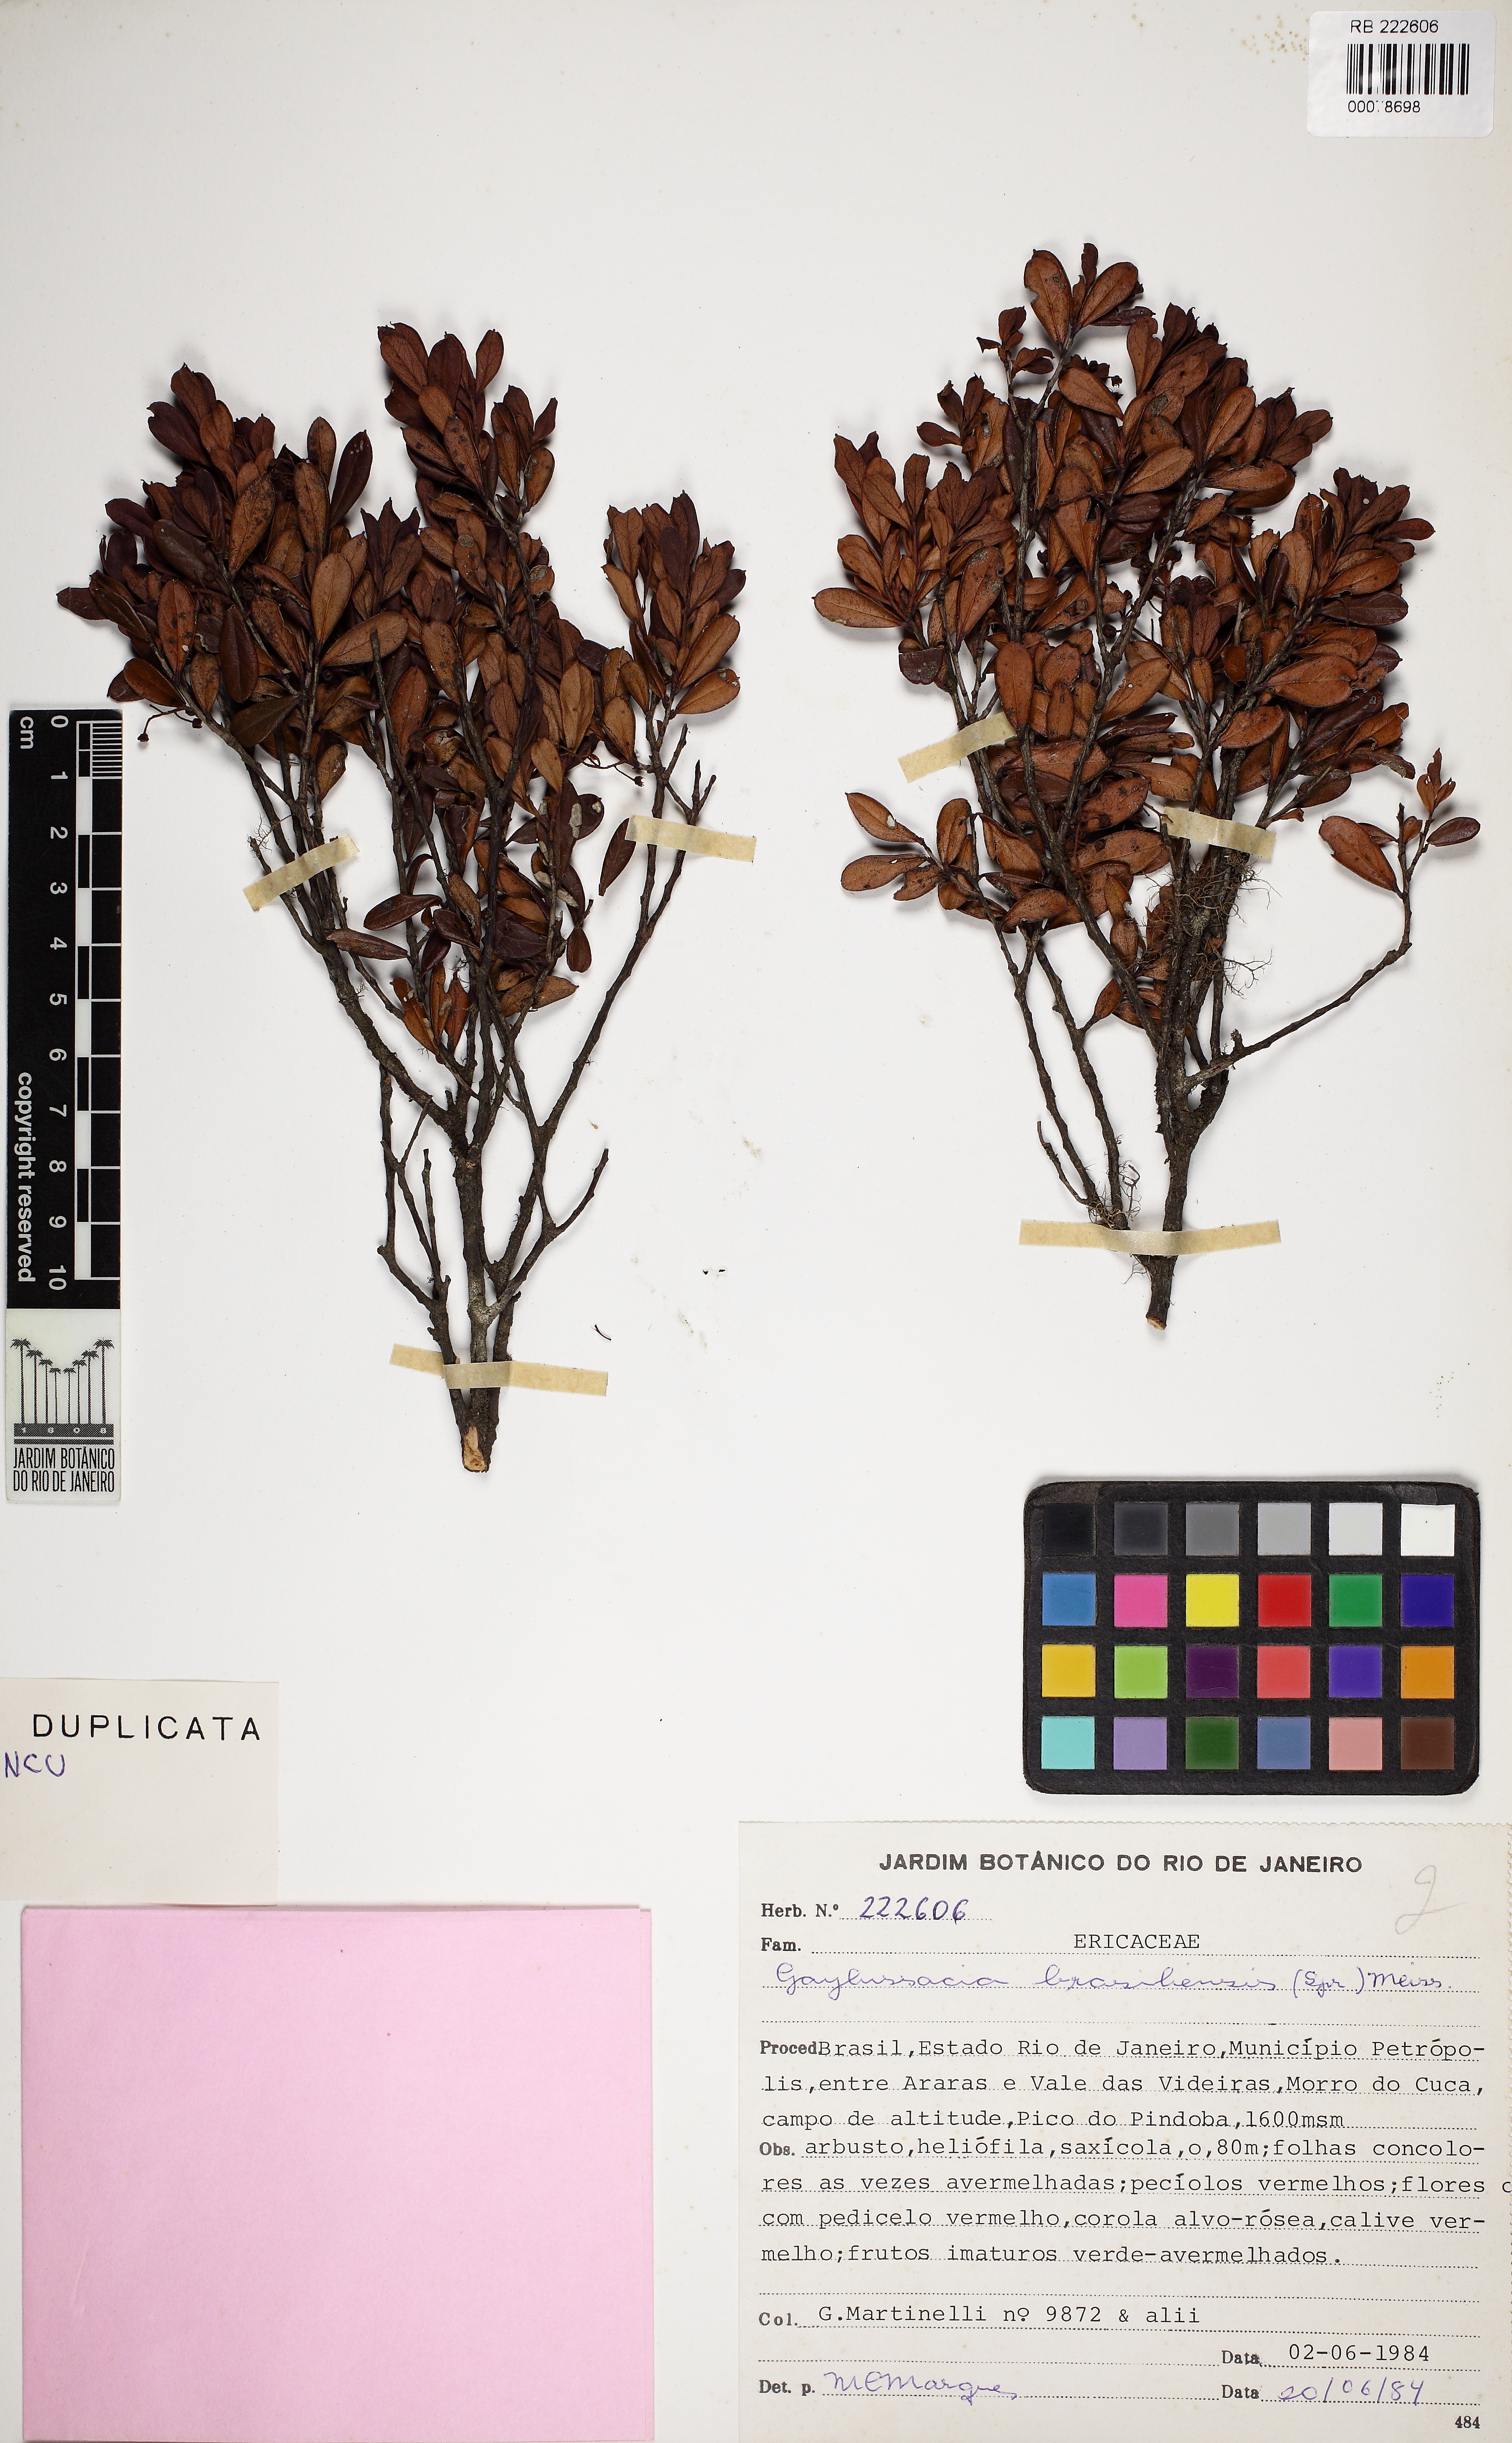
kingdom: Plantae
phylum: Tracheophyta
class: Magnoliopsida
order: Ericales
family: Ericaceae
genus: Gaylussacia
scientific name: Gaylussacia brasiliensis
